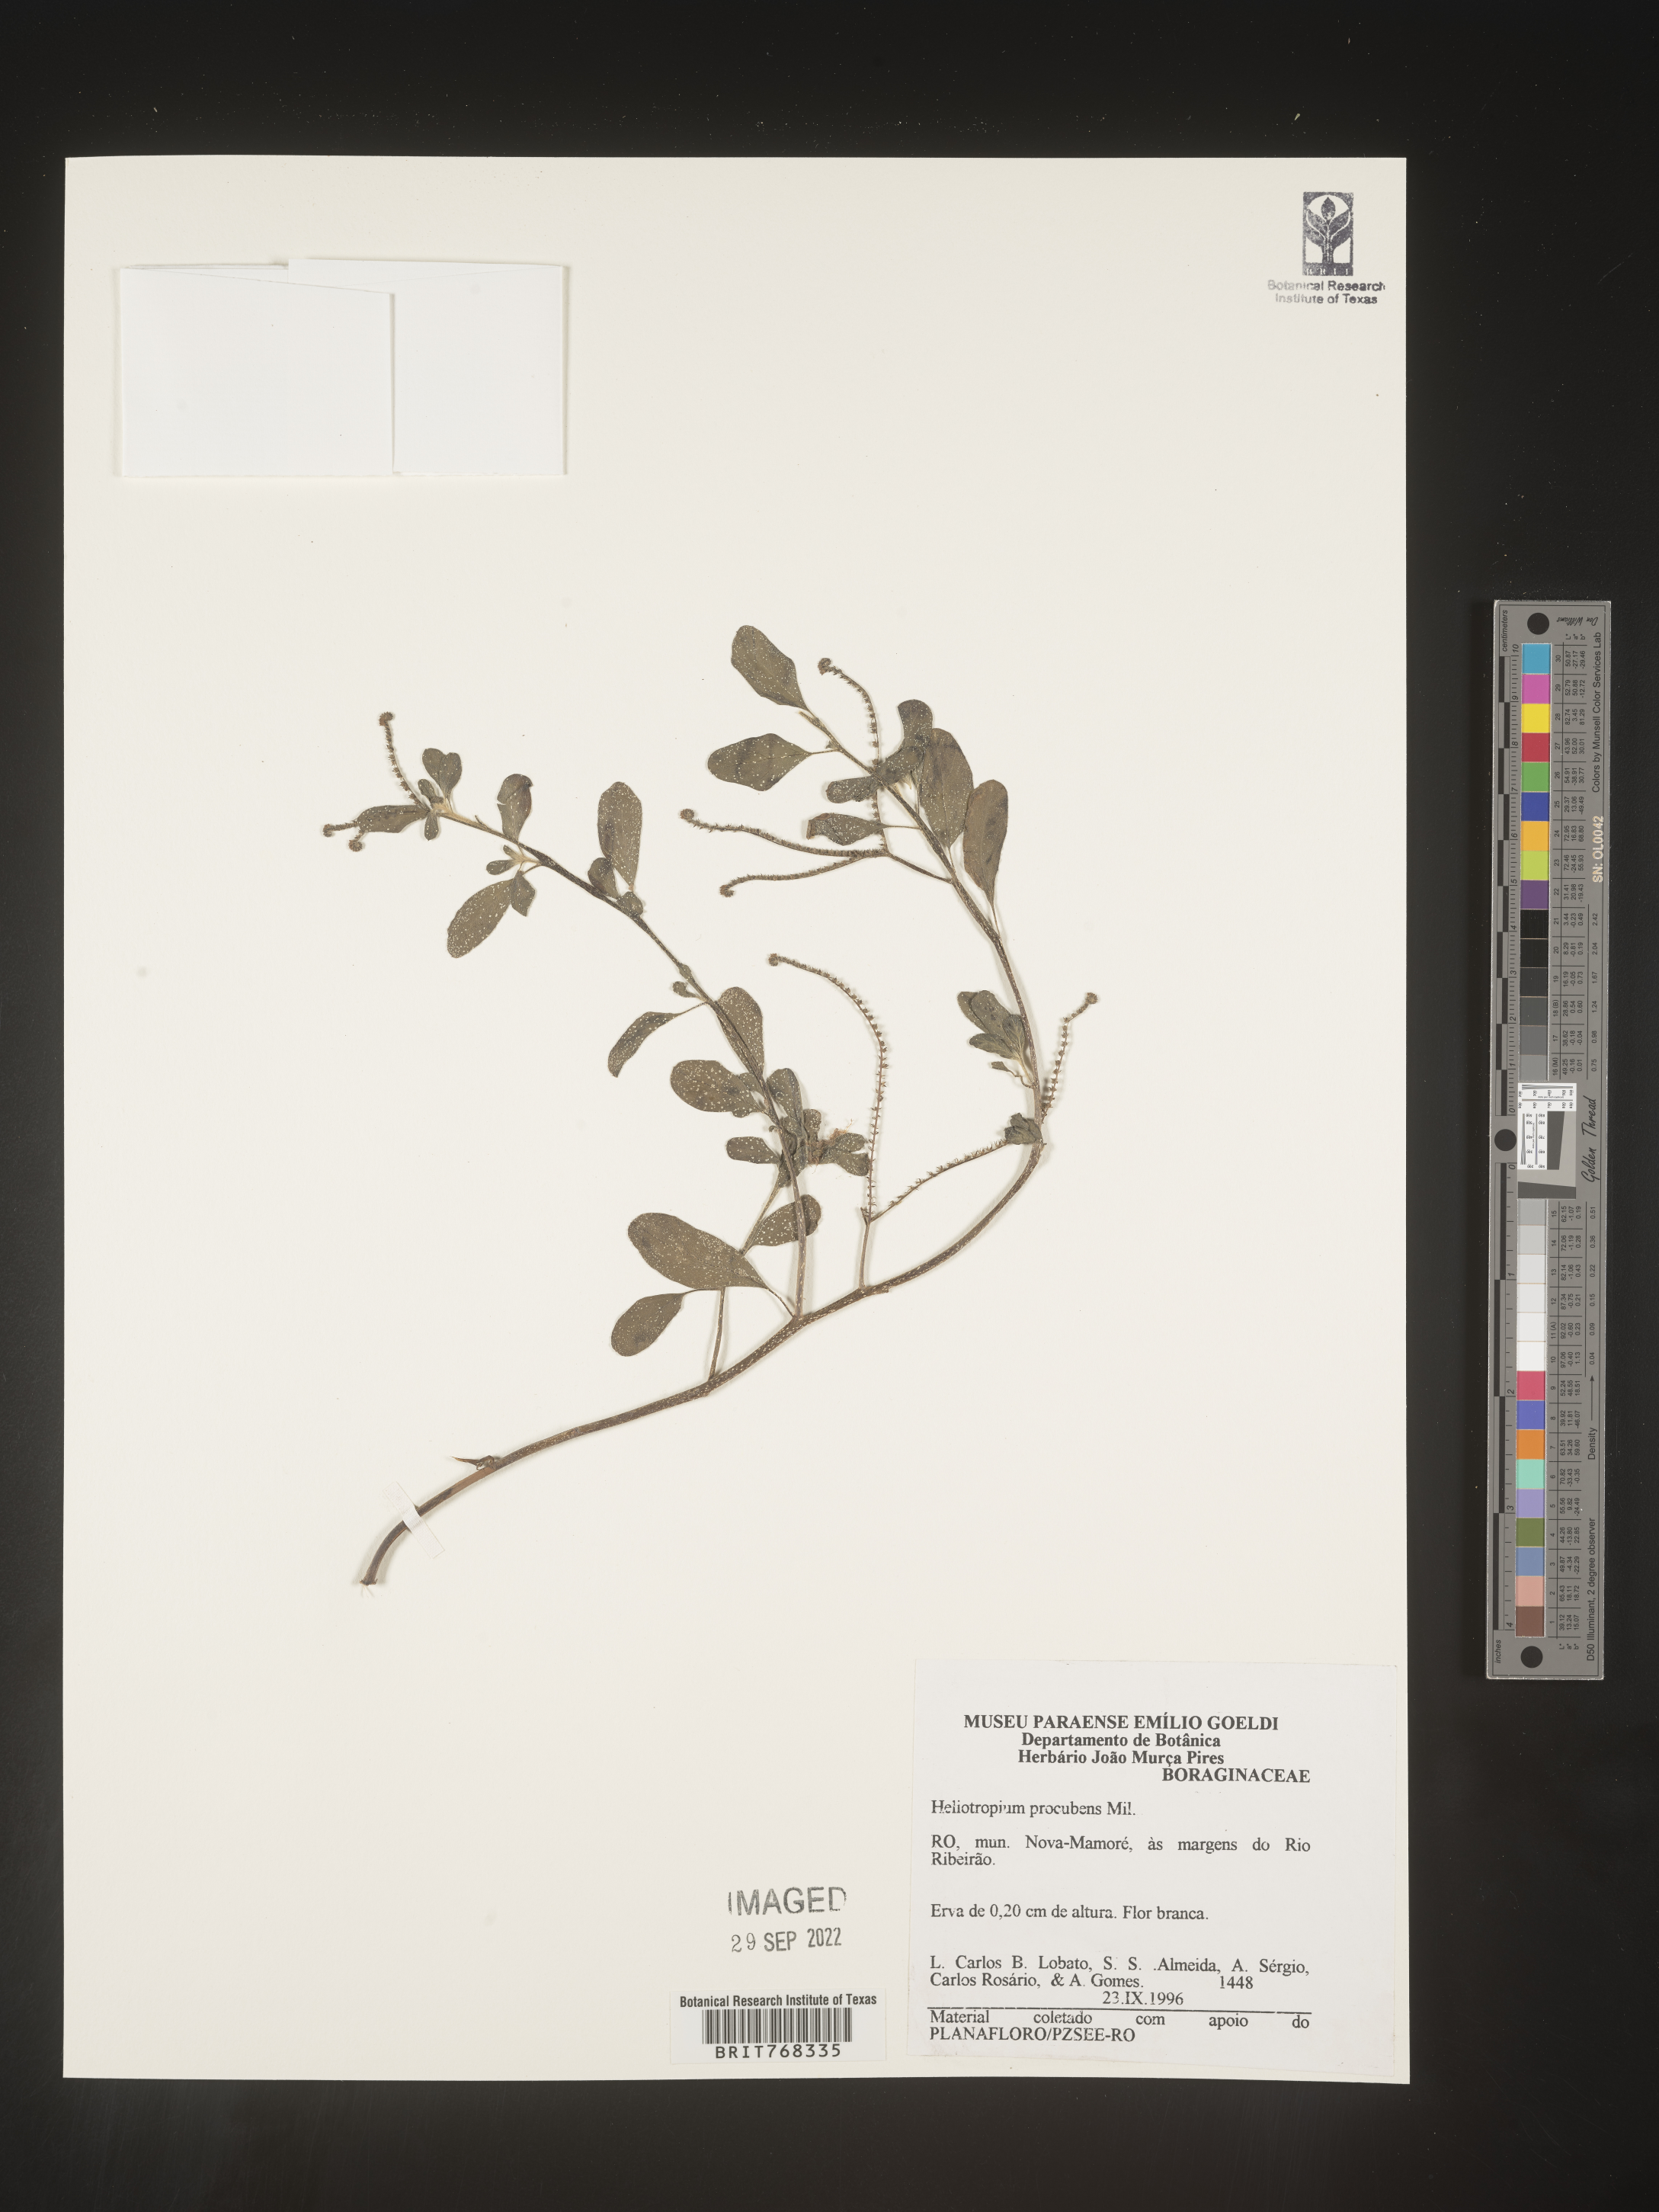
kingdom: Plantae
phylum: Tracheophyta
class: Magnoliopsida
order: Boraginales
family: Heliotropiaceae
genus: Heliotropium
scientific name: Heliotropium
